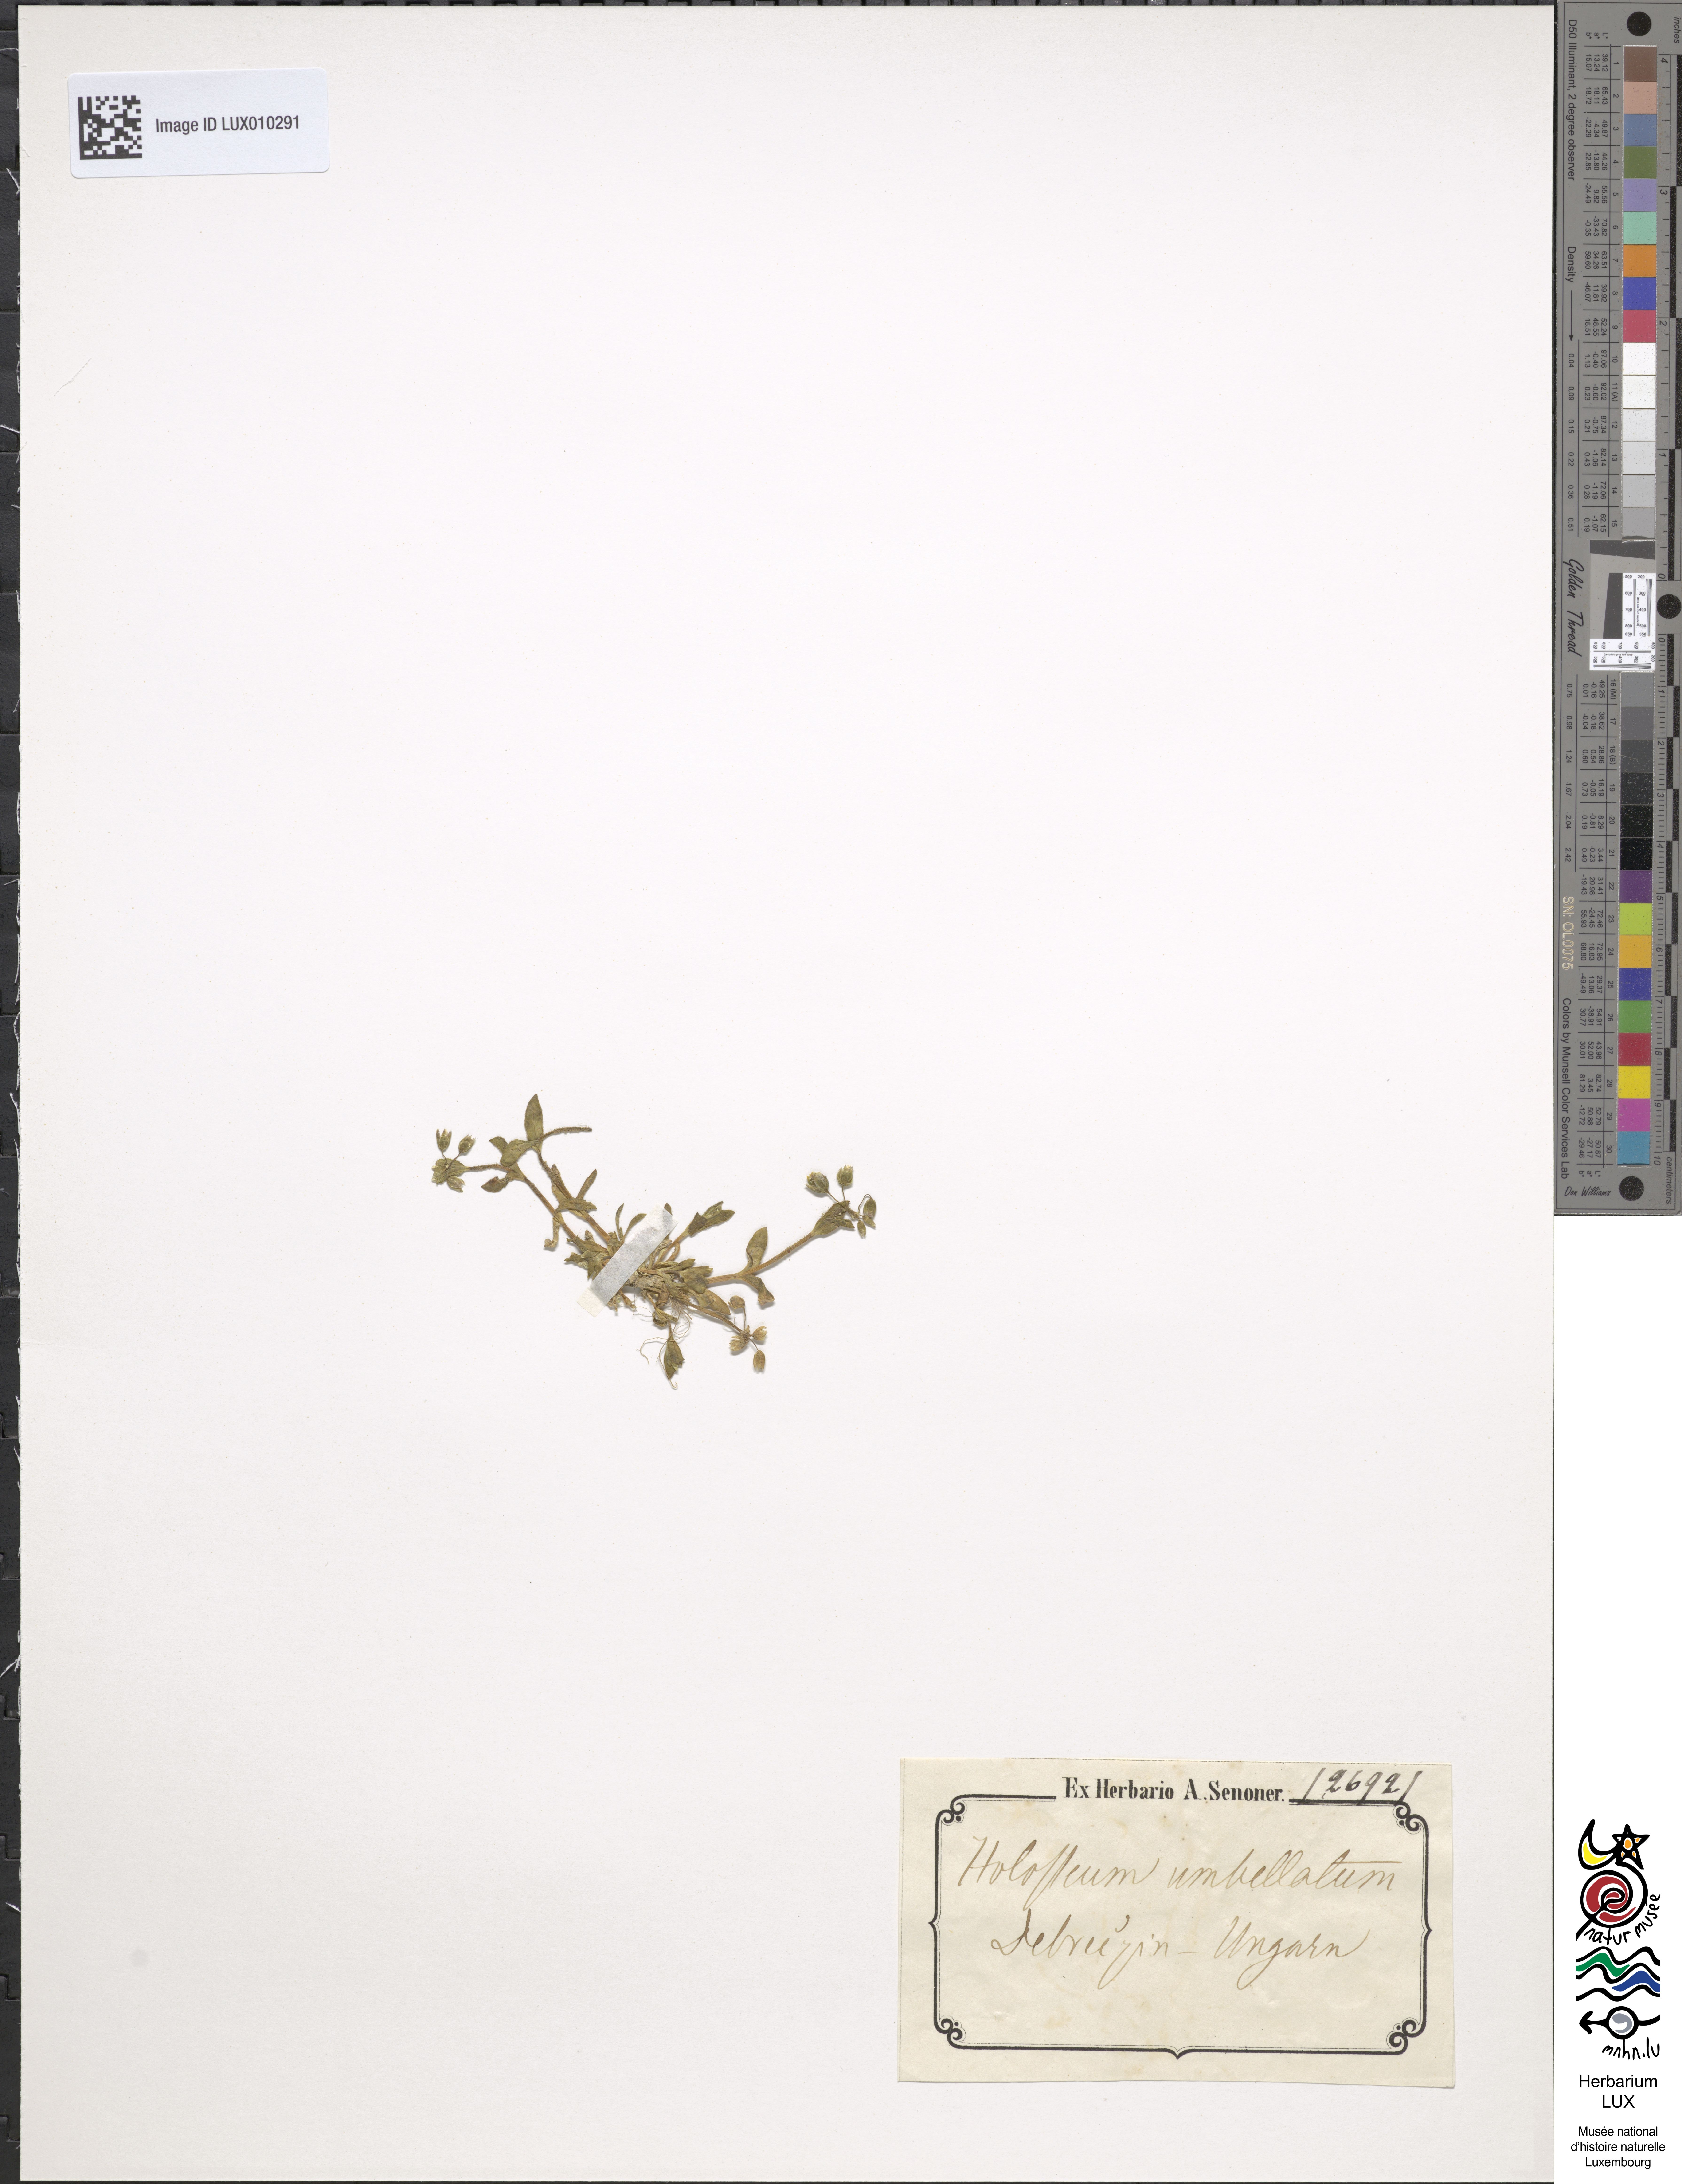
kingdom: Plantae
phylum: Tracheophyta
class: Magnoliopsida
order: Caryophyllales
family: Caryophyllaceae
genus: Holosteum
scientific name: Holosteum umbellatum
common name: Jagged chickweed
